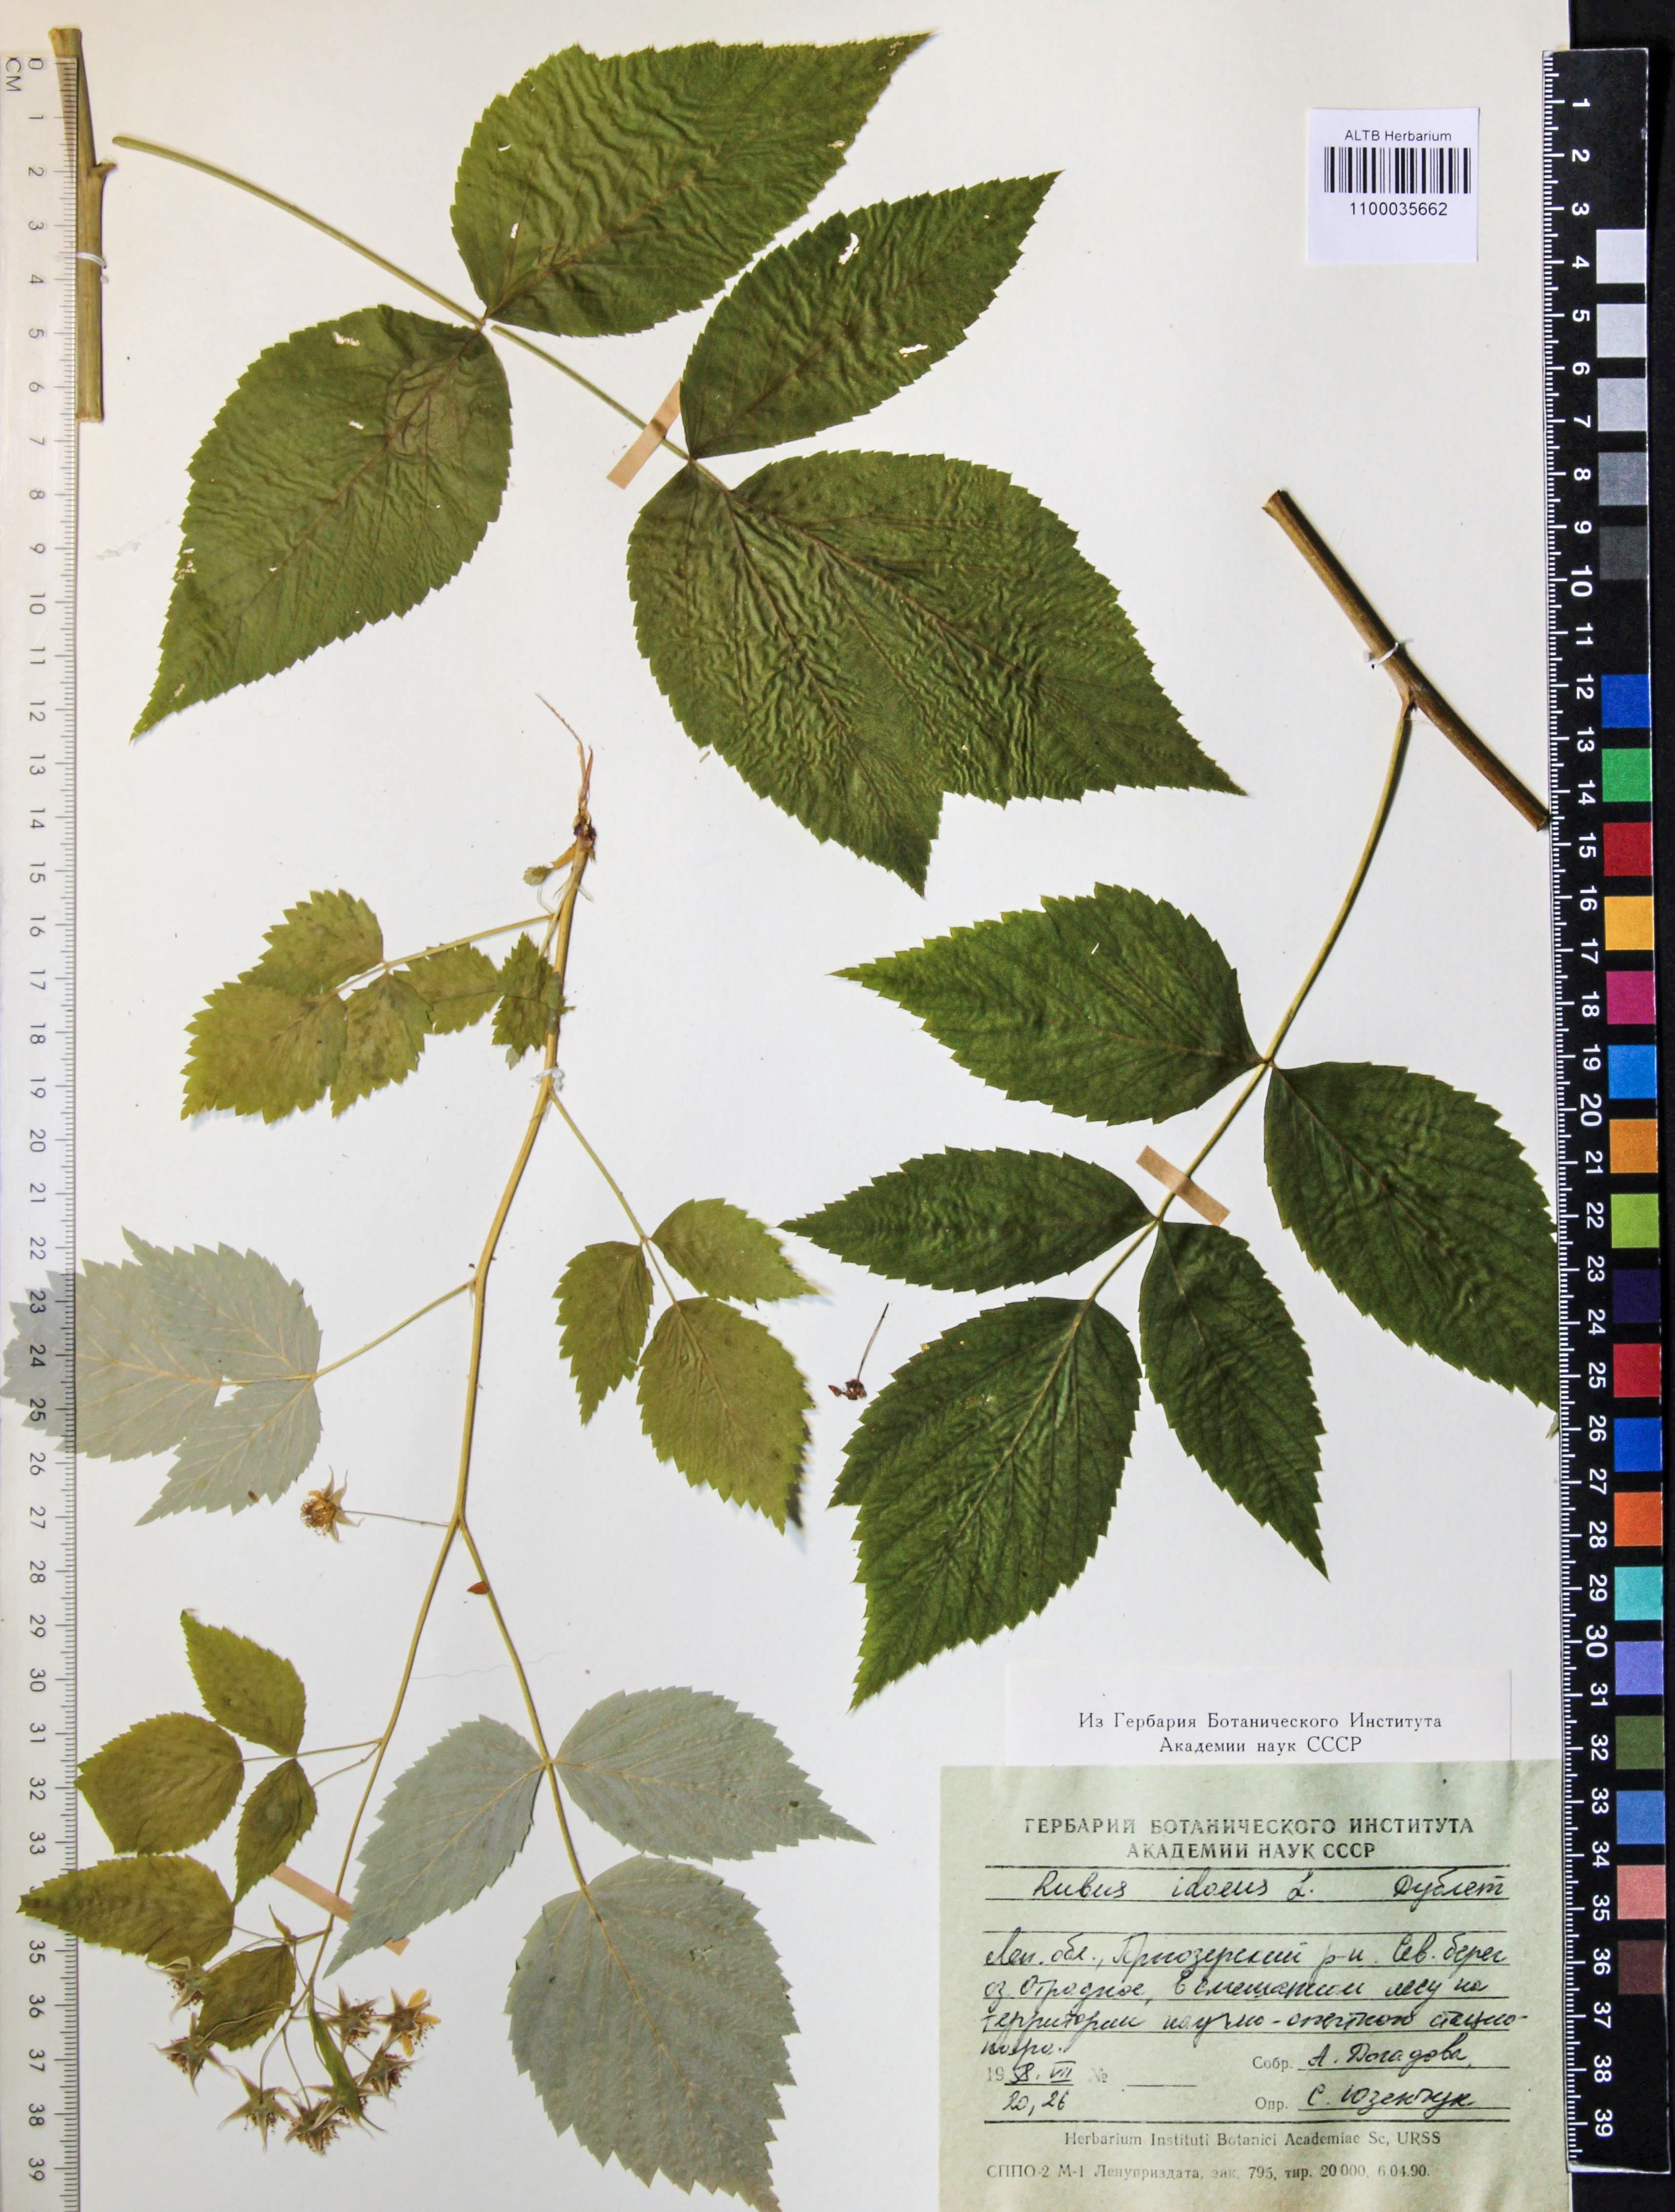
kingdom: Plantae
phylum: Tracheophyta
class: Magnoliopsida
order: Rosales
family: Rosaceae
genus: Rubus
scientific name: Rubus idaeus
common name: Raspberry
